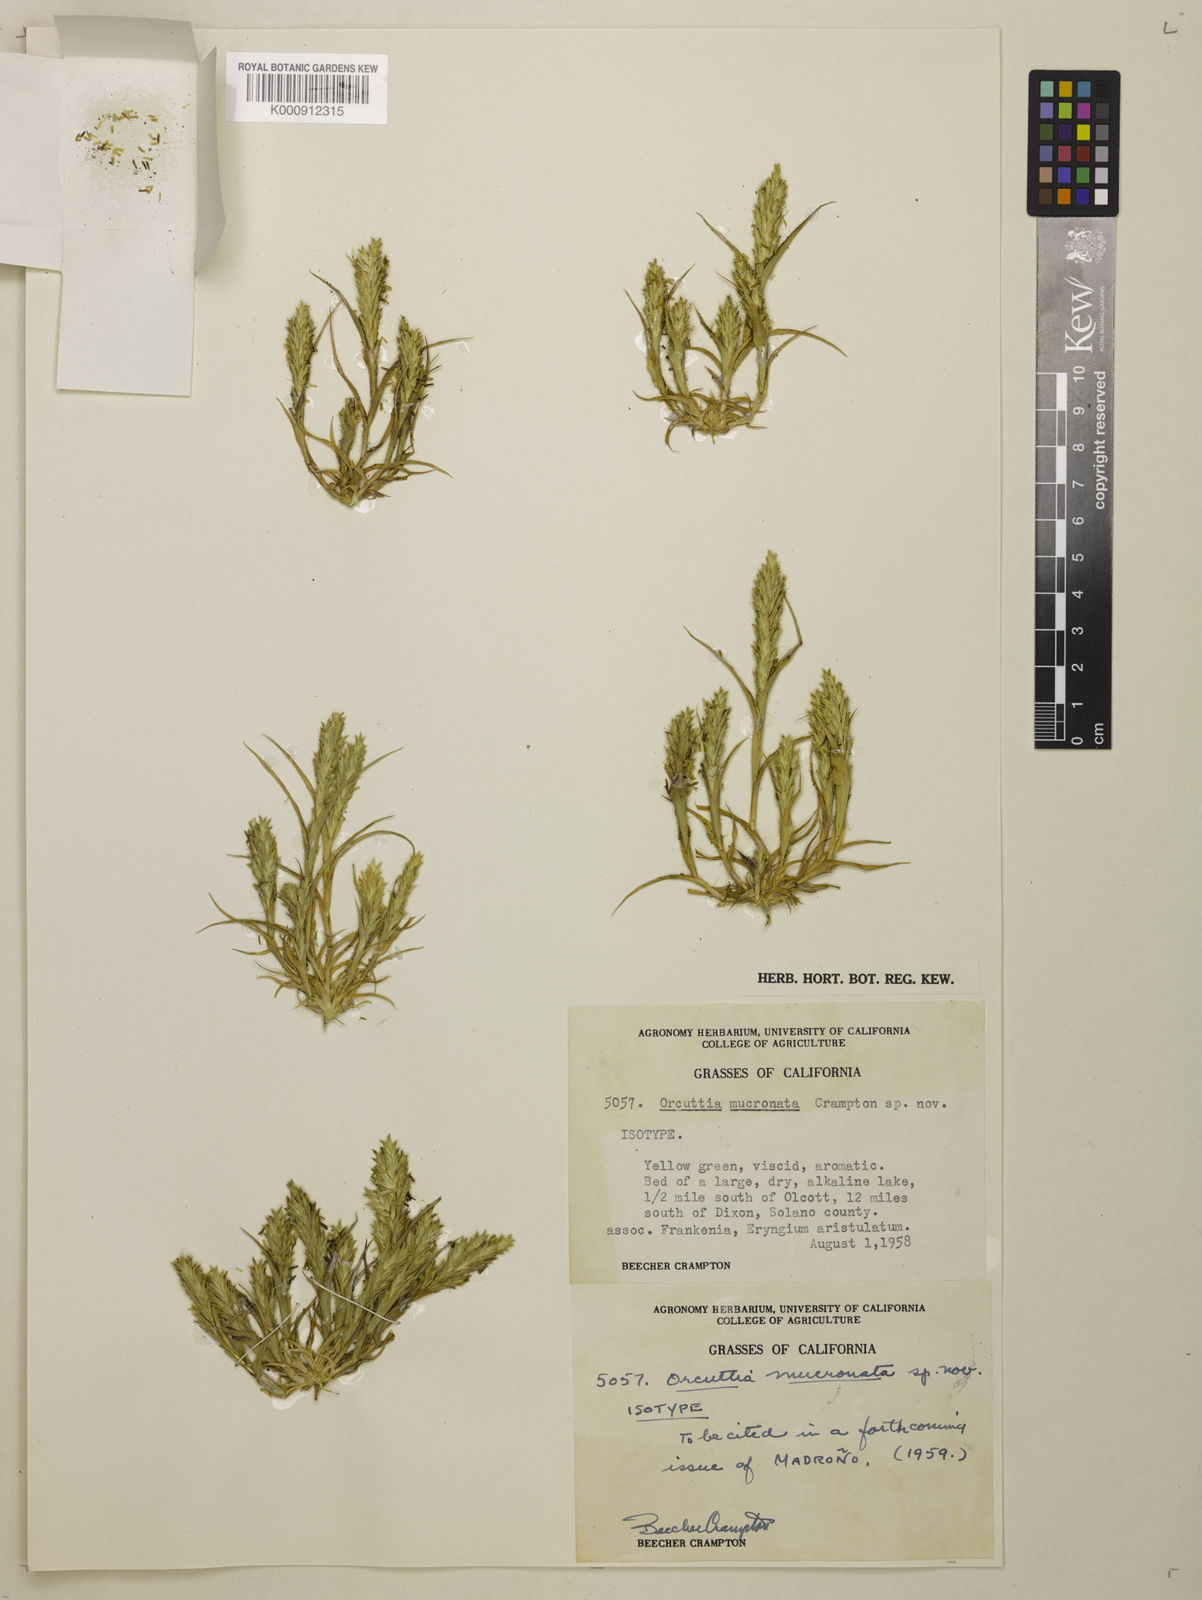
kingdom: Plantae
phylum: Tracheophyta
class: Liliopsida
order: Poales
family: Poaceae
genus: Tuctoria
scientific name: Tuctoria mucronata
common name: Solano grass
